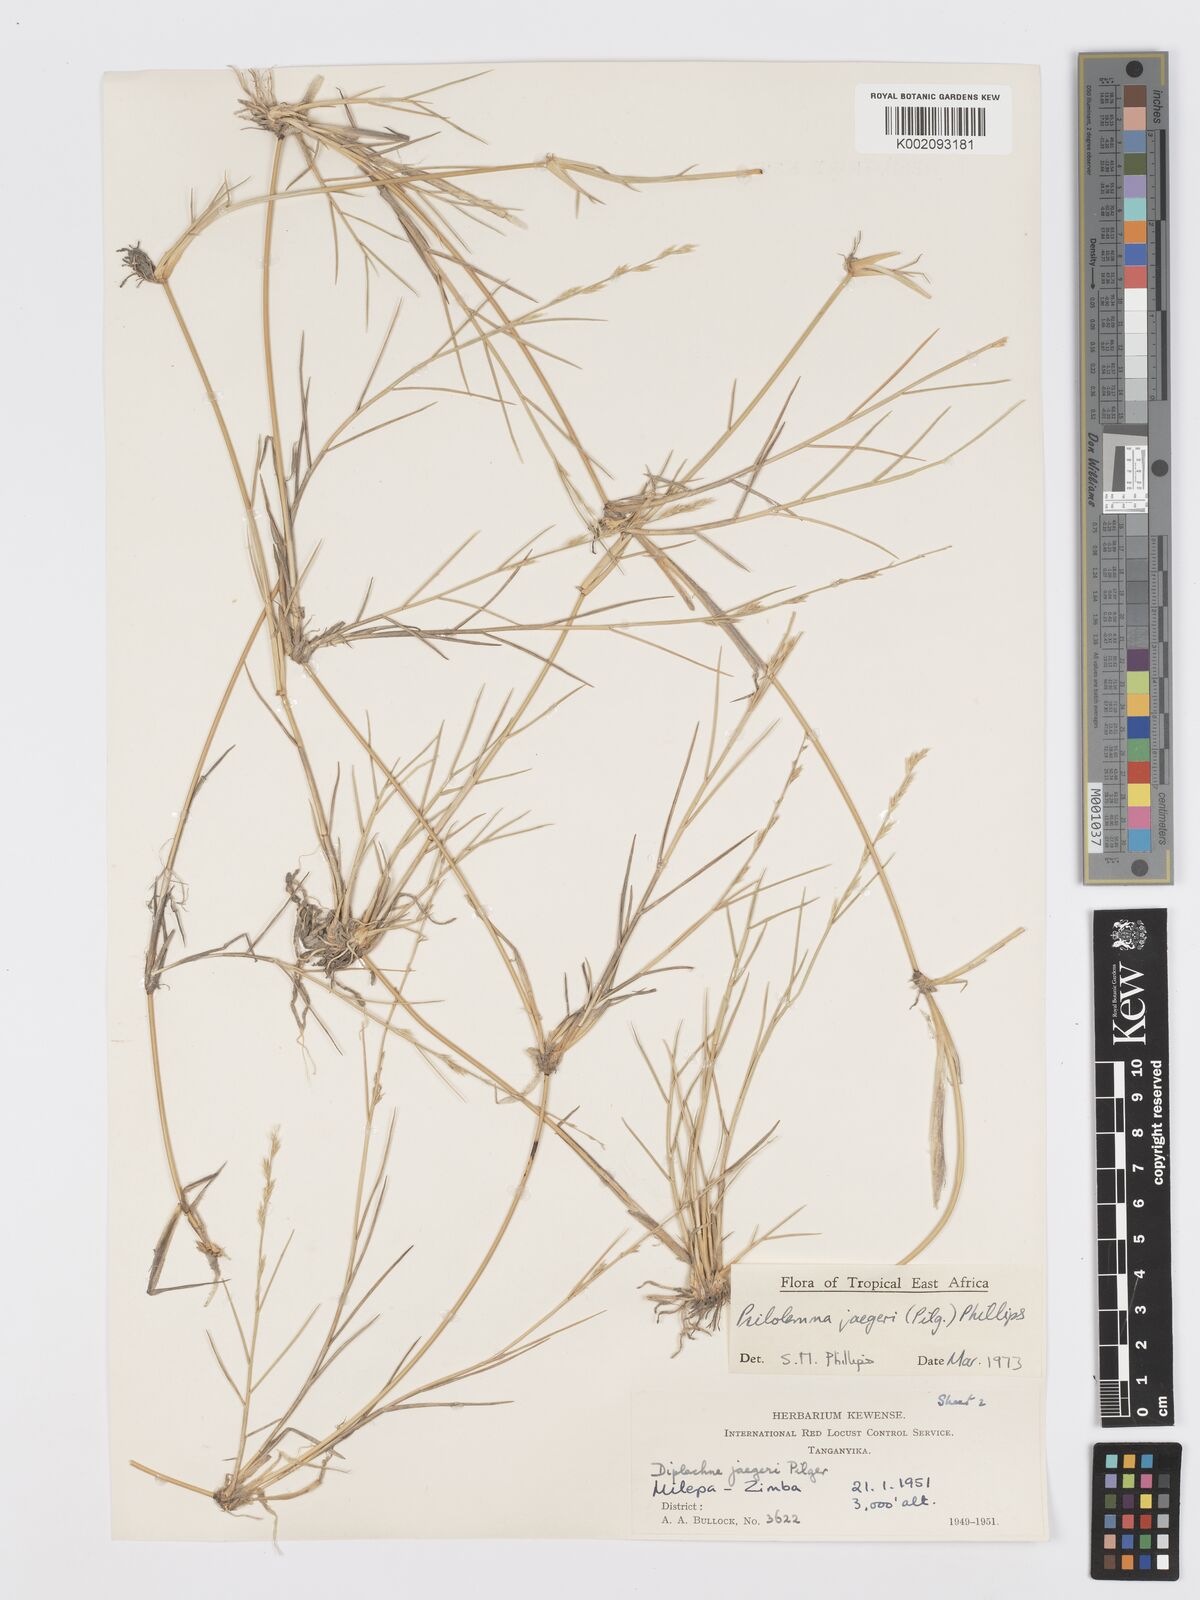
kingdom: Plantae
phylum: Tracheophyta
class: Liliopsida
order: Poales
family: Poaceae
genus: Psilolemma
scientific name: Psilolemma jaegeri
